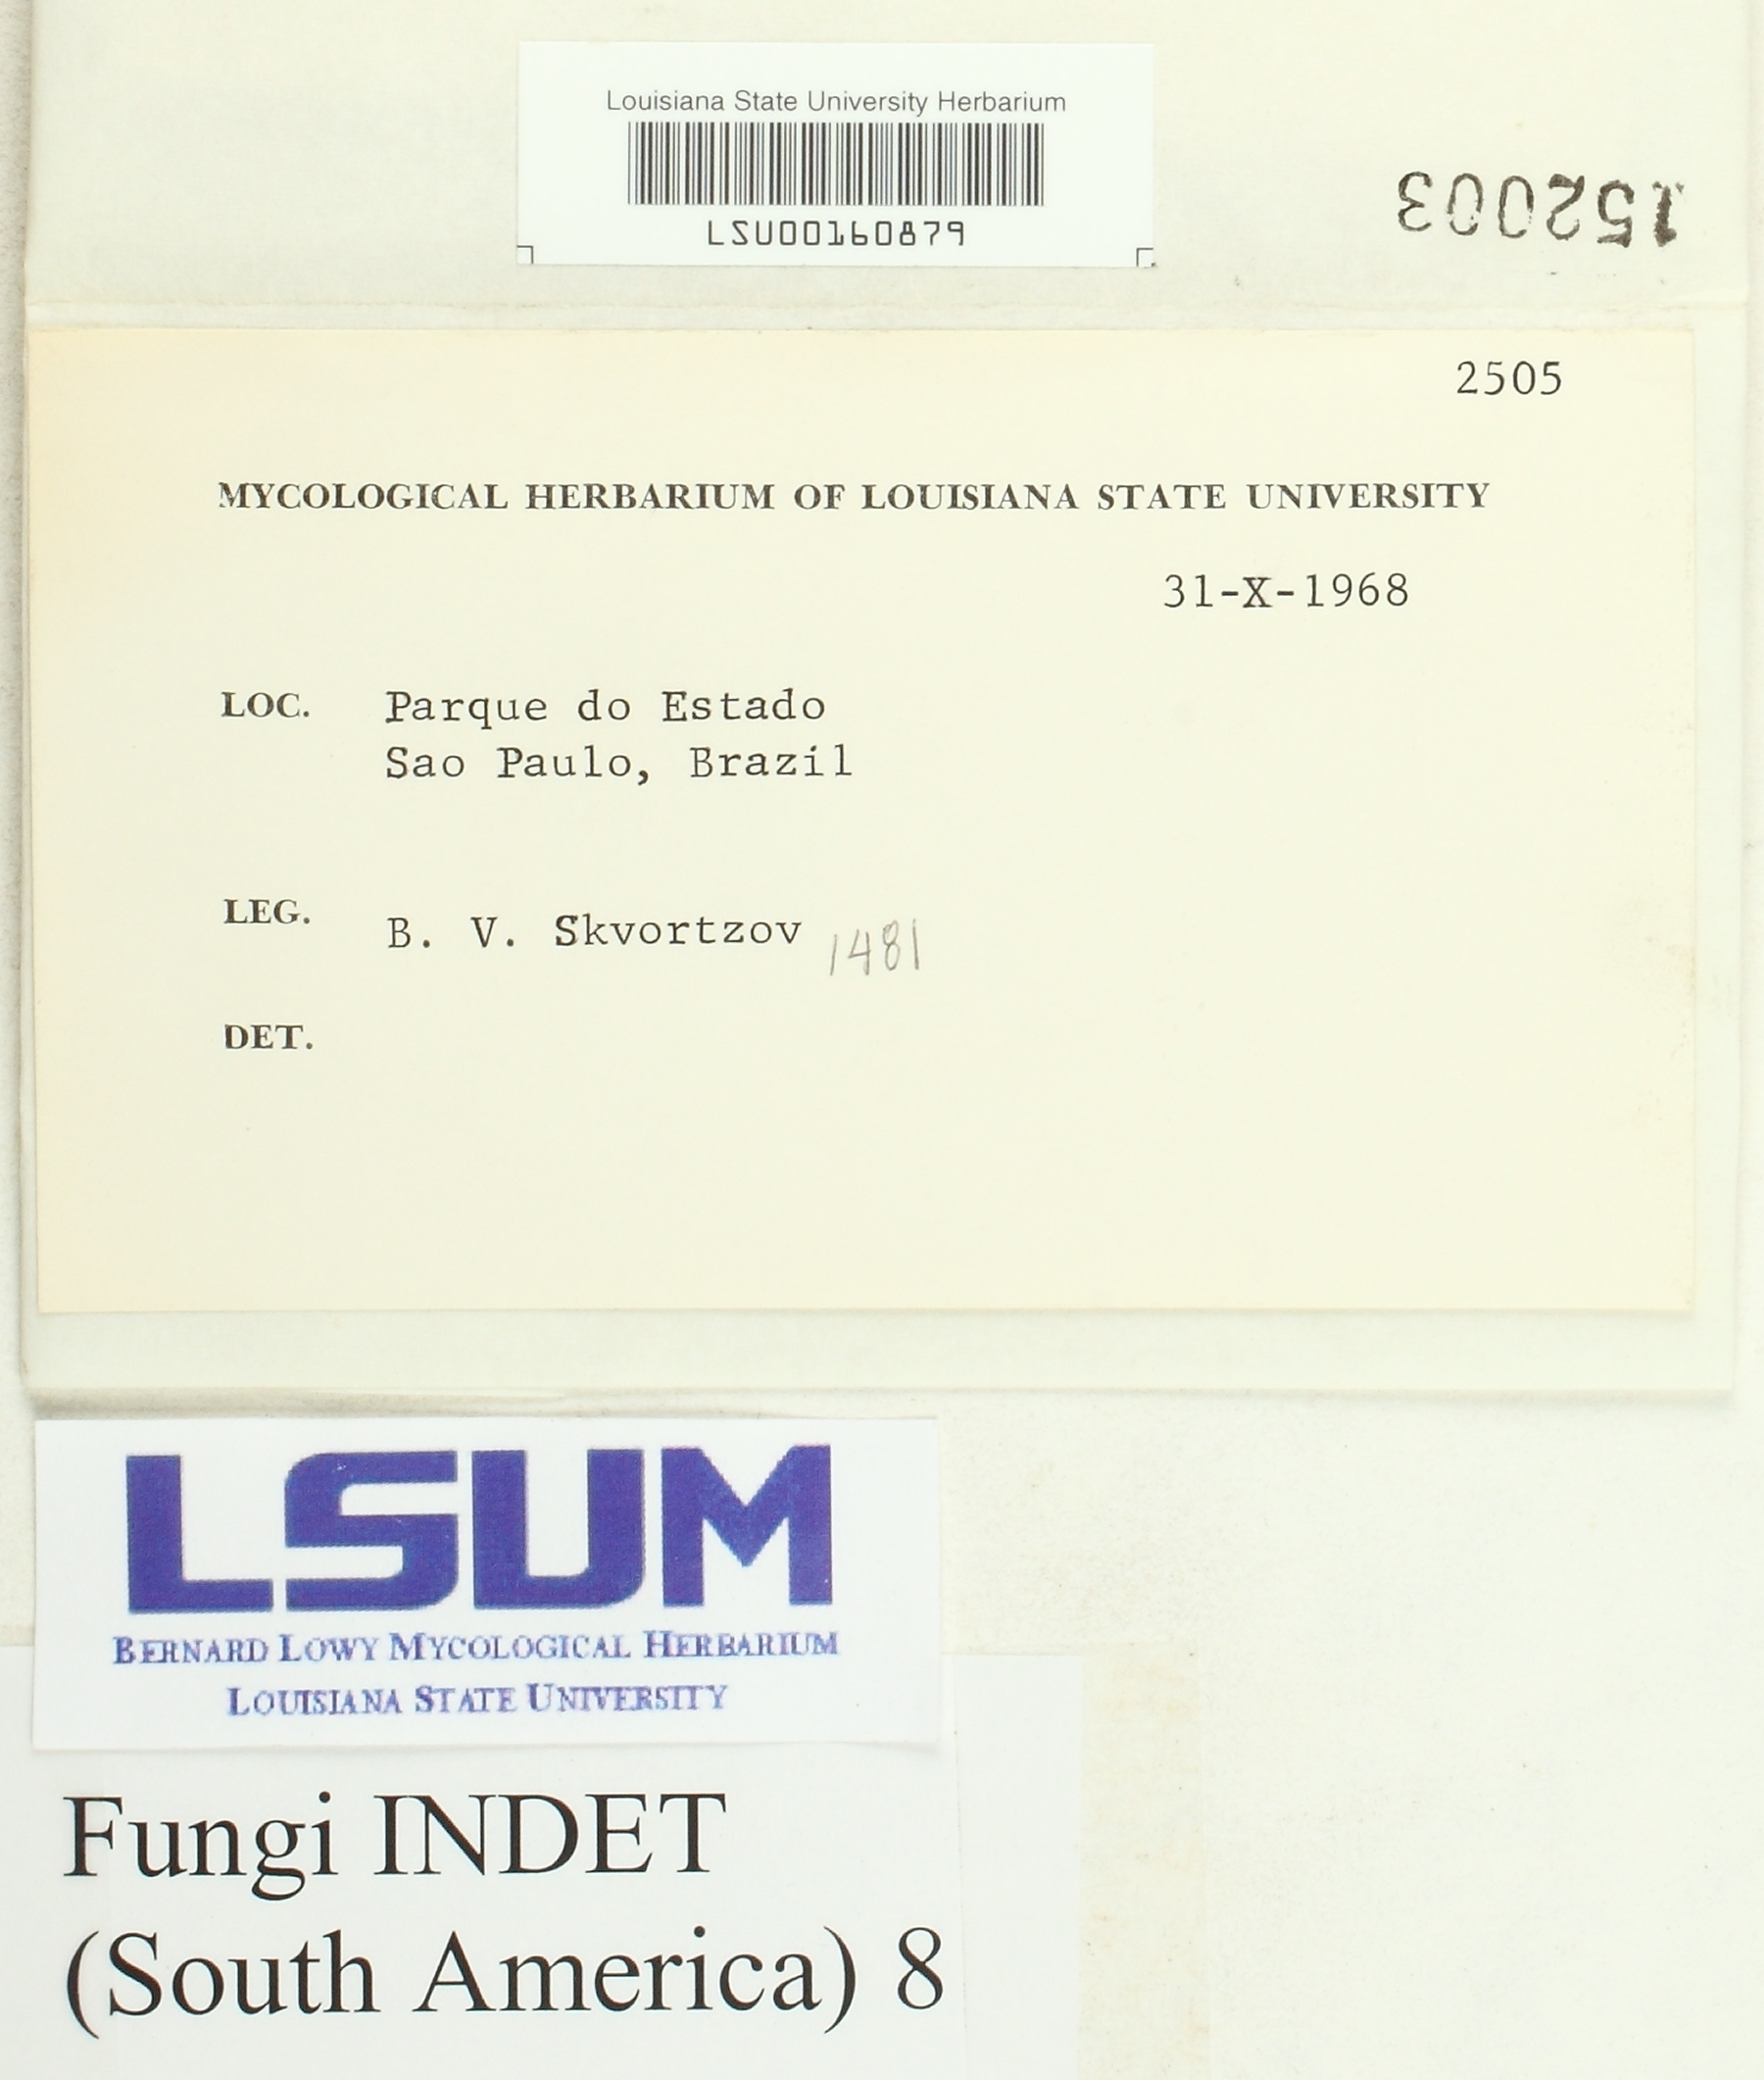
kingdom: Fungi
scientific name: Fungi
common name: Fungi
